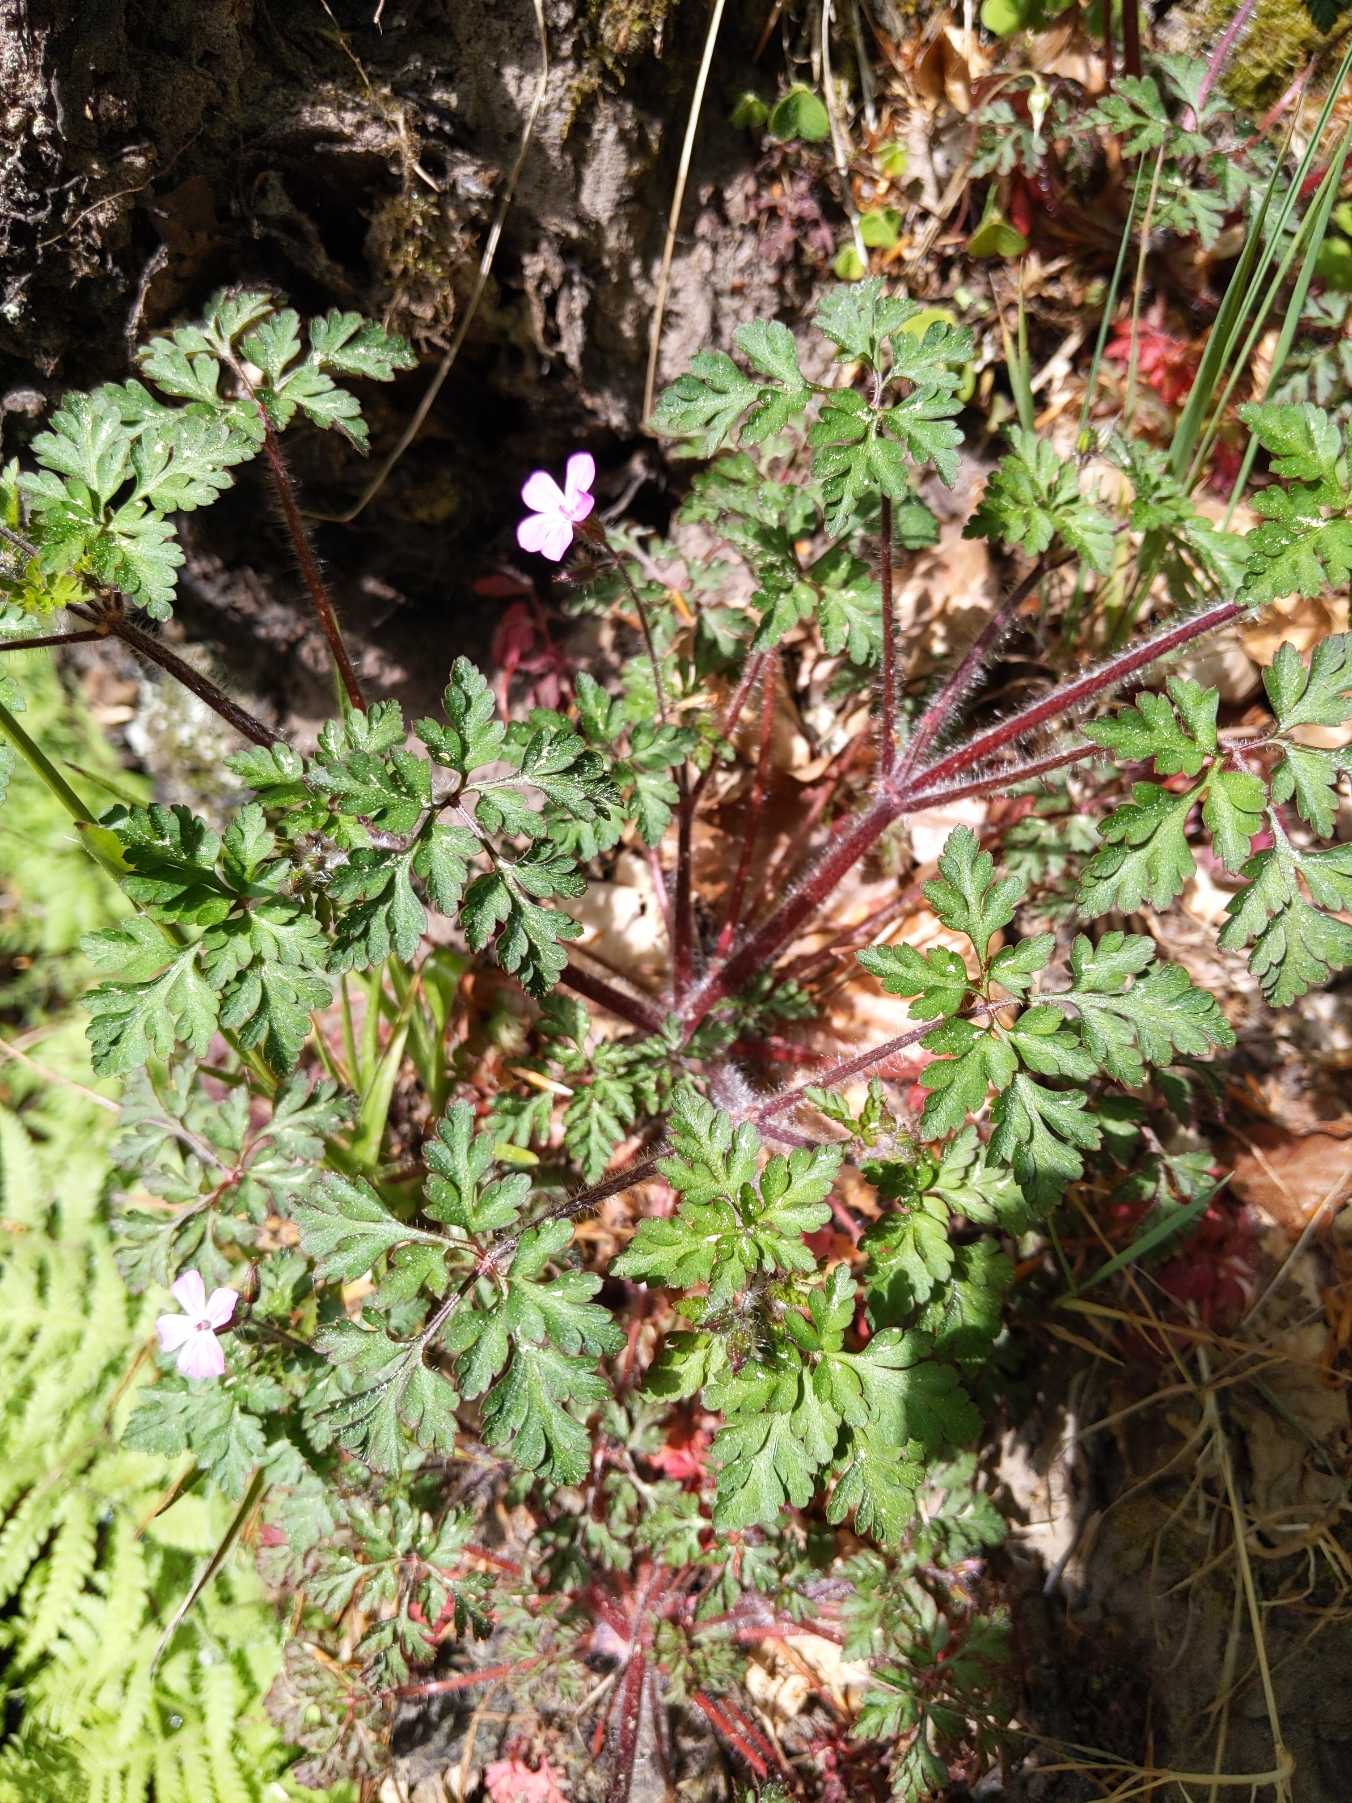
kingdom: Plantae
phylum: Tracheophyta
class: Magnoliopsida
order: Geraniales
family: Geraniaceae
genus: Geranium
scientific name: Geranium robertianum
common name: Stinkende storkenæb
